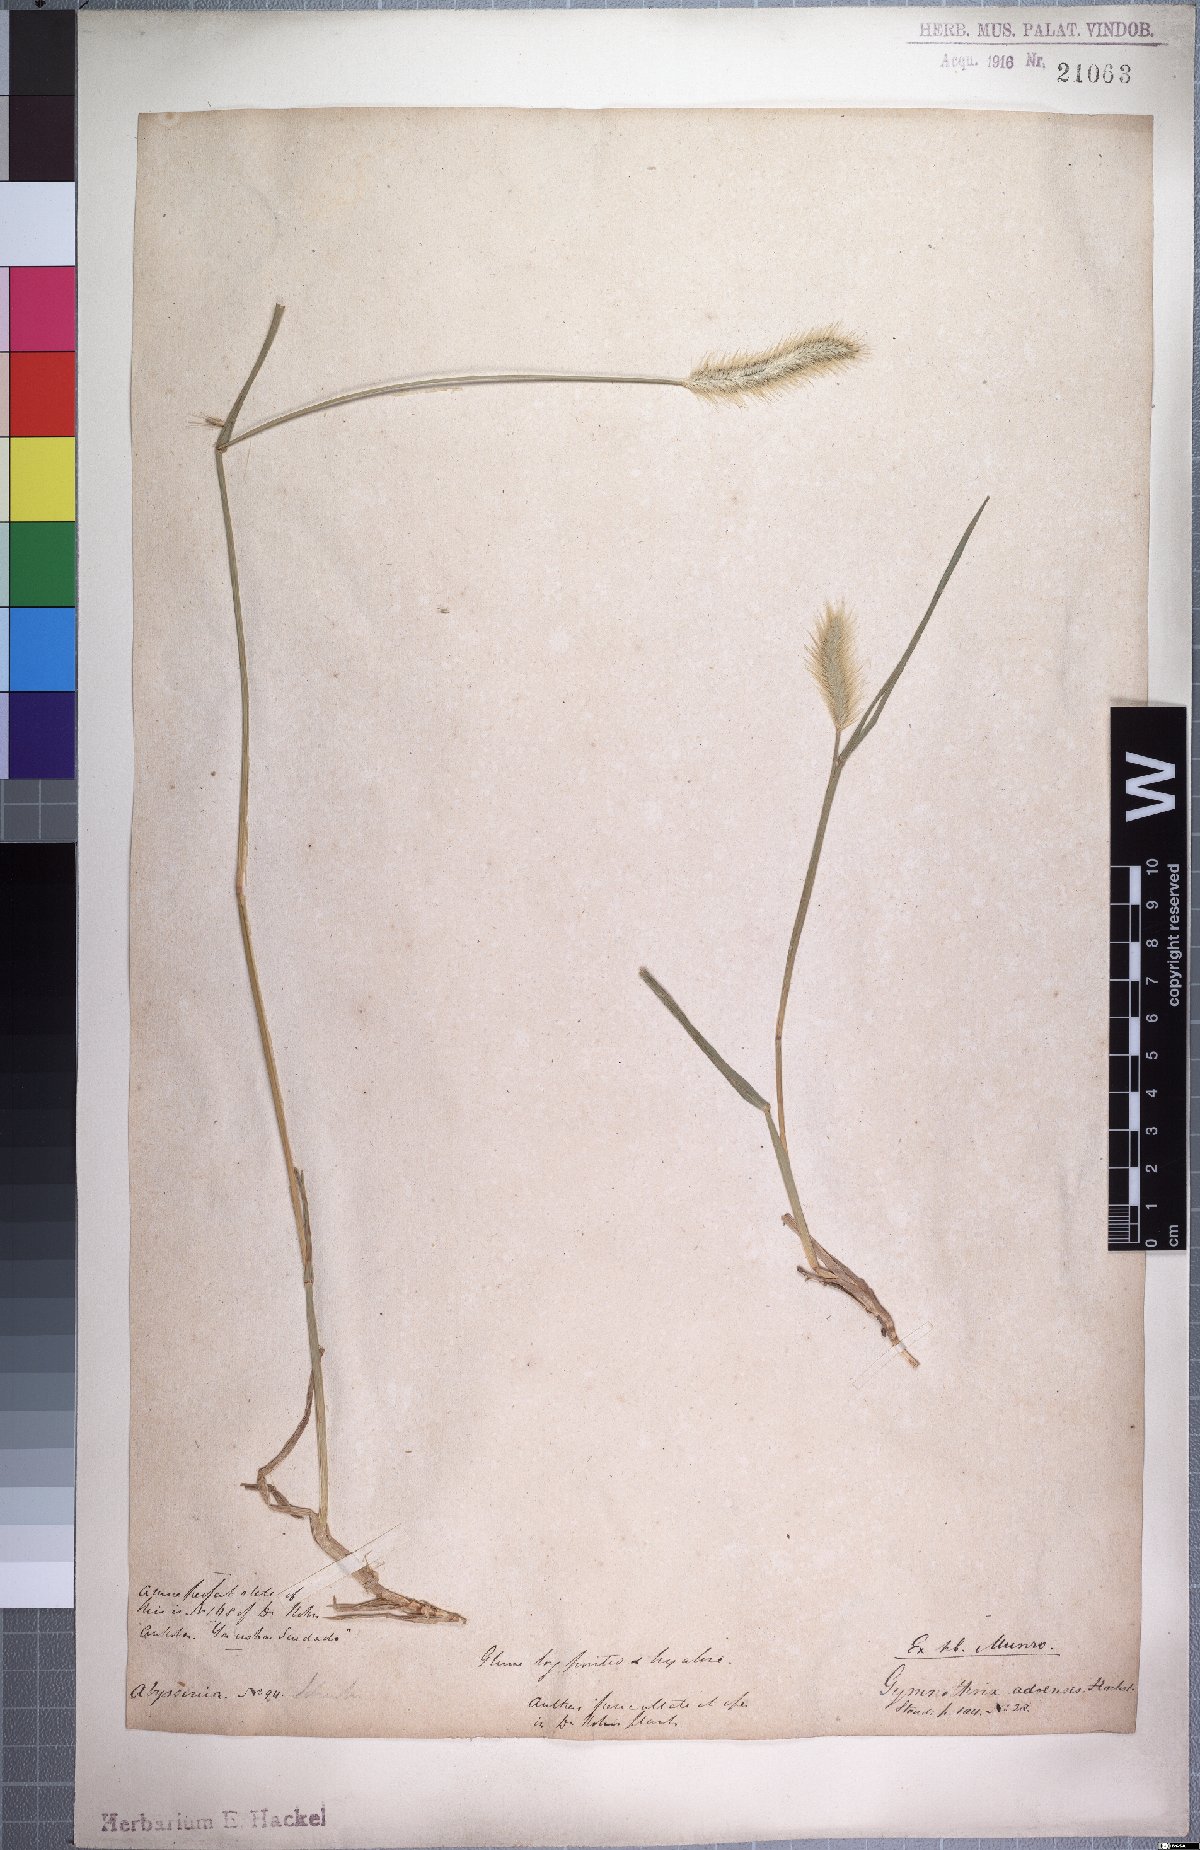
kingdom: Plantae
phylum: Tracheophyta
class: Liliopsida
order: Poales
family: Poaceae
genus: Cenchrus
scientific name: Cenchrus geniculatus
